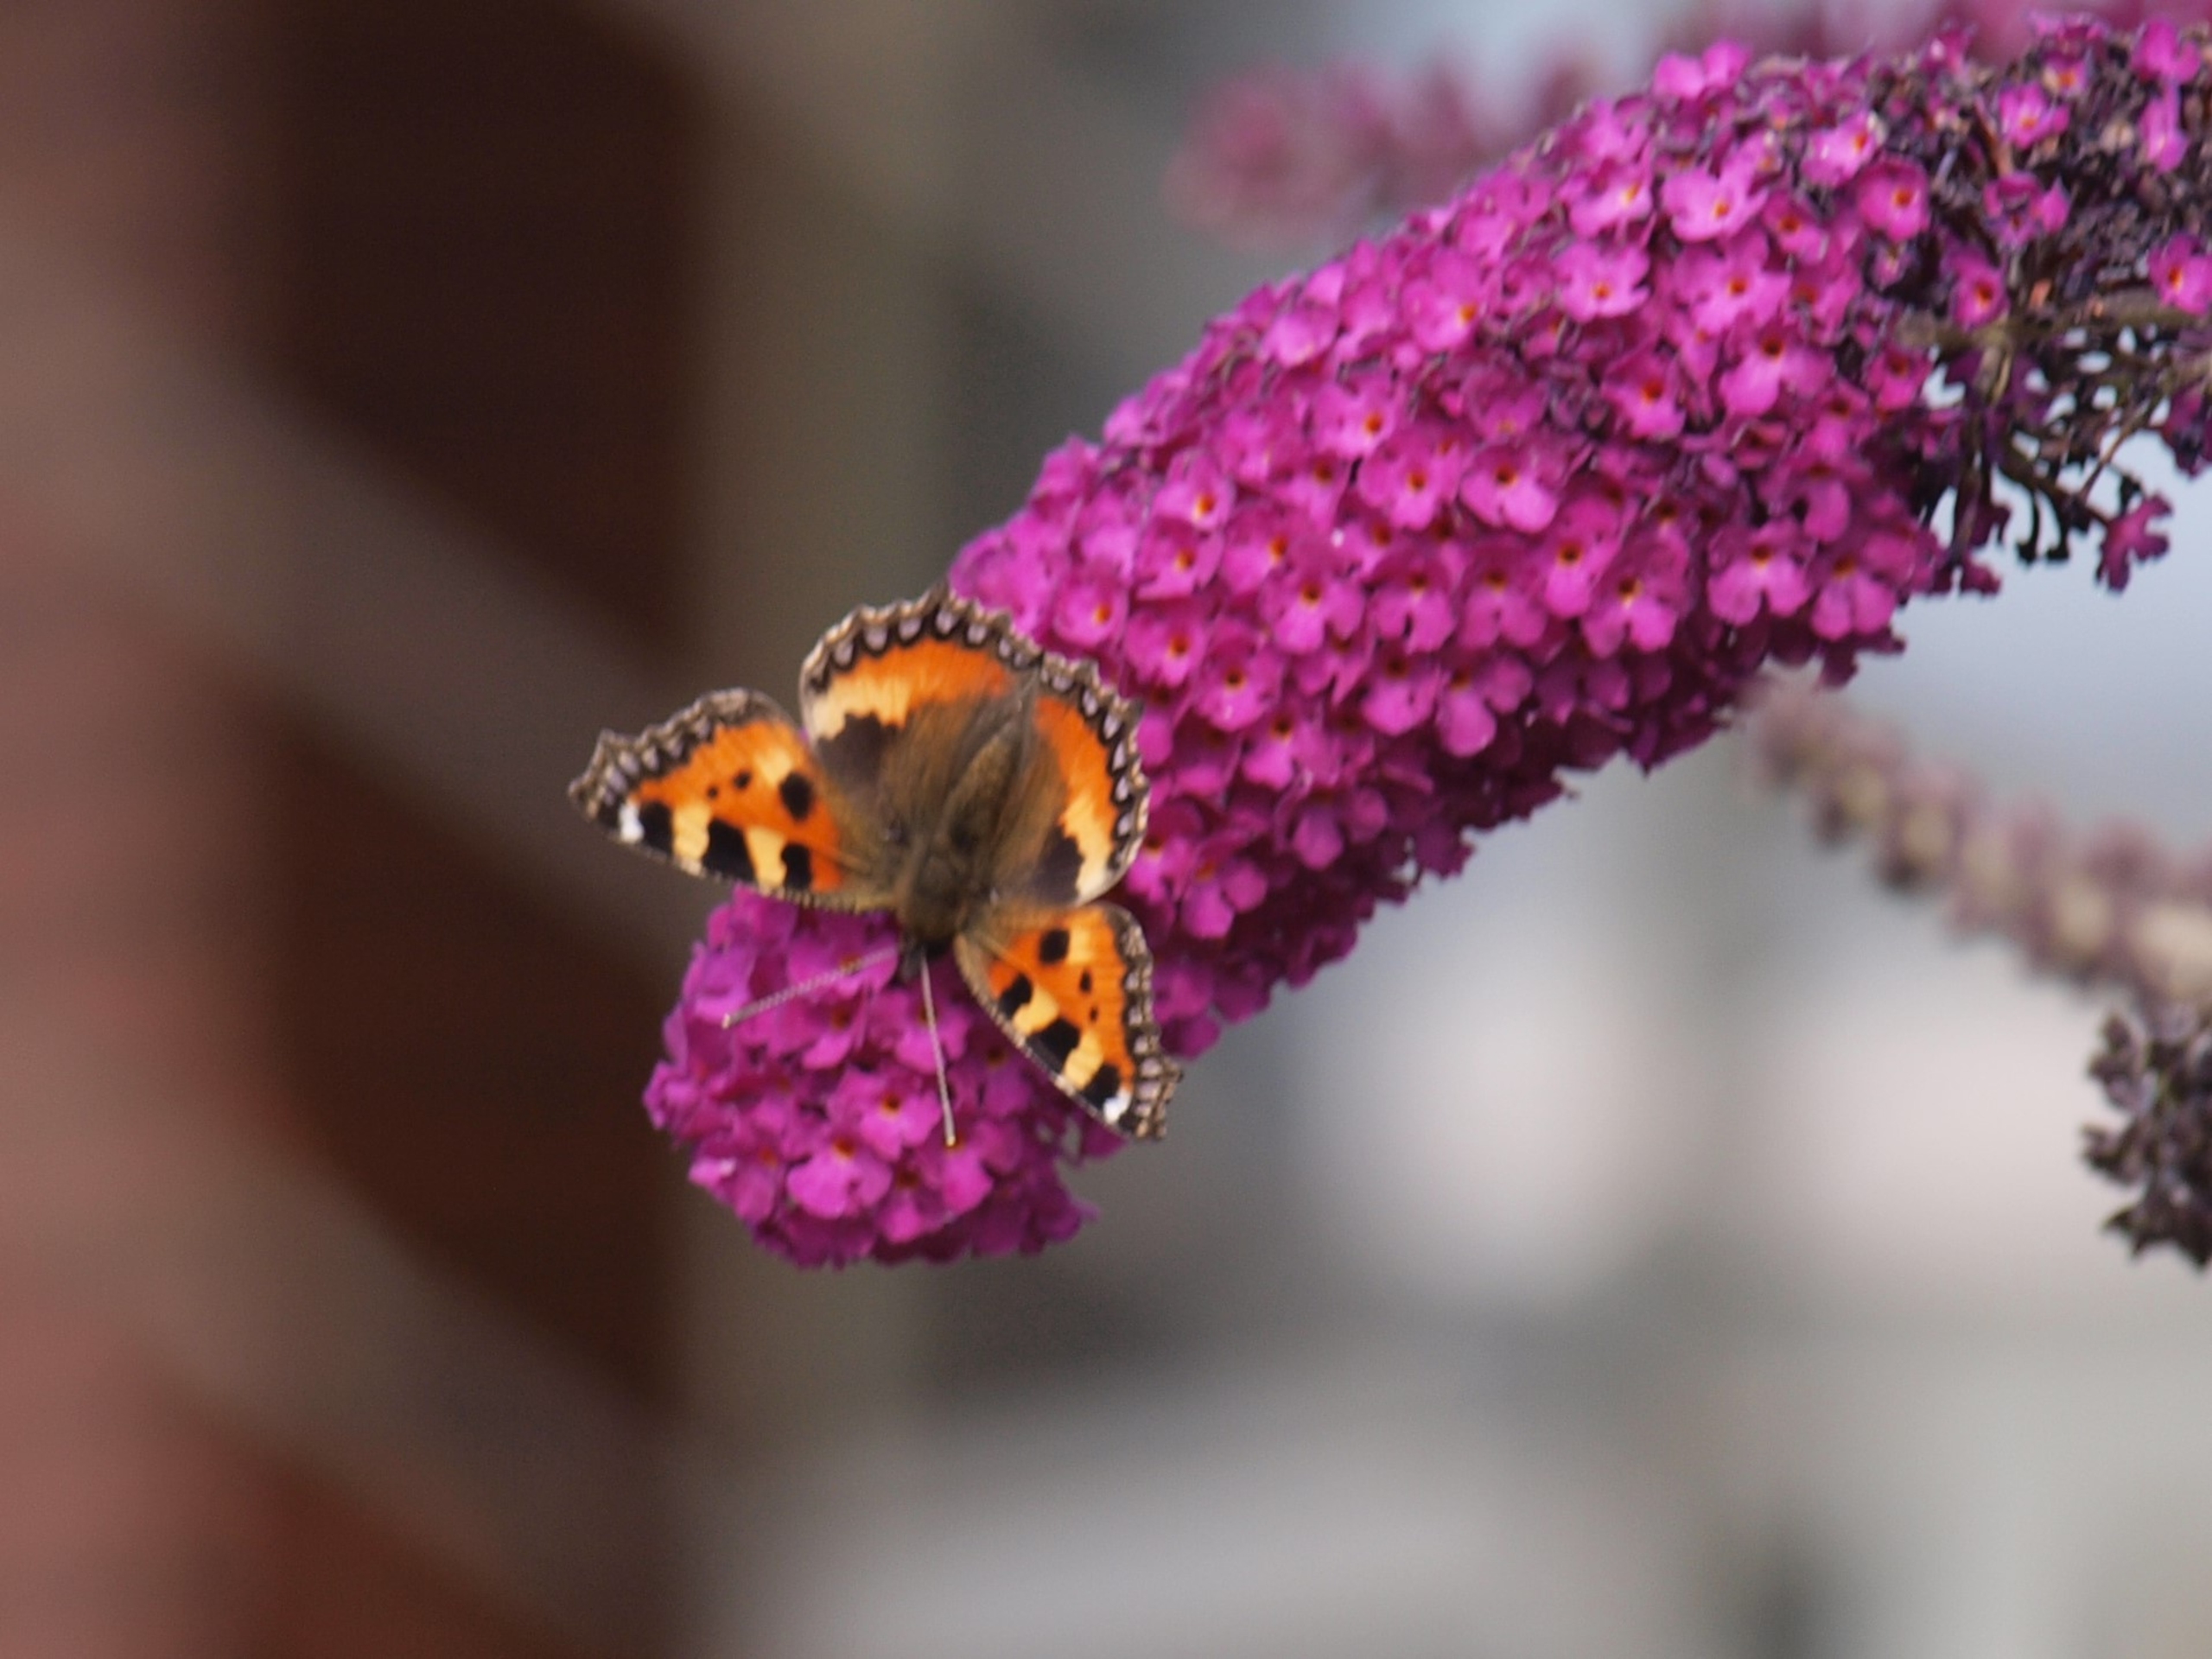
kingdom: Animalia
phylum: Arthropoda
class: Insecta
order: Lepidoptera
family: Nymphalidae
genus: Aglais
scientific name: Aglais urticae
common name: Nældens takvinge
